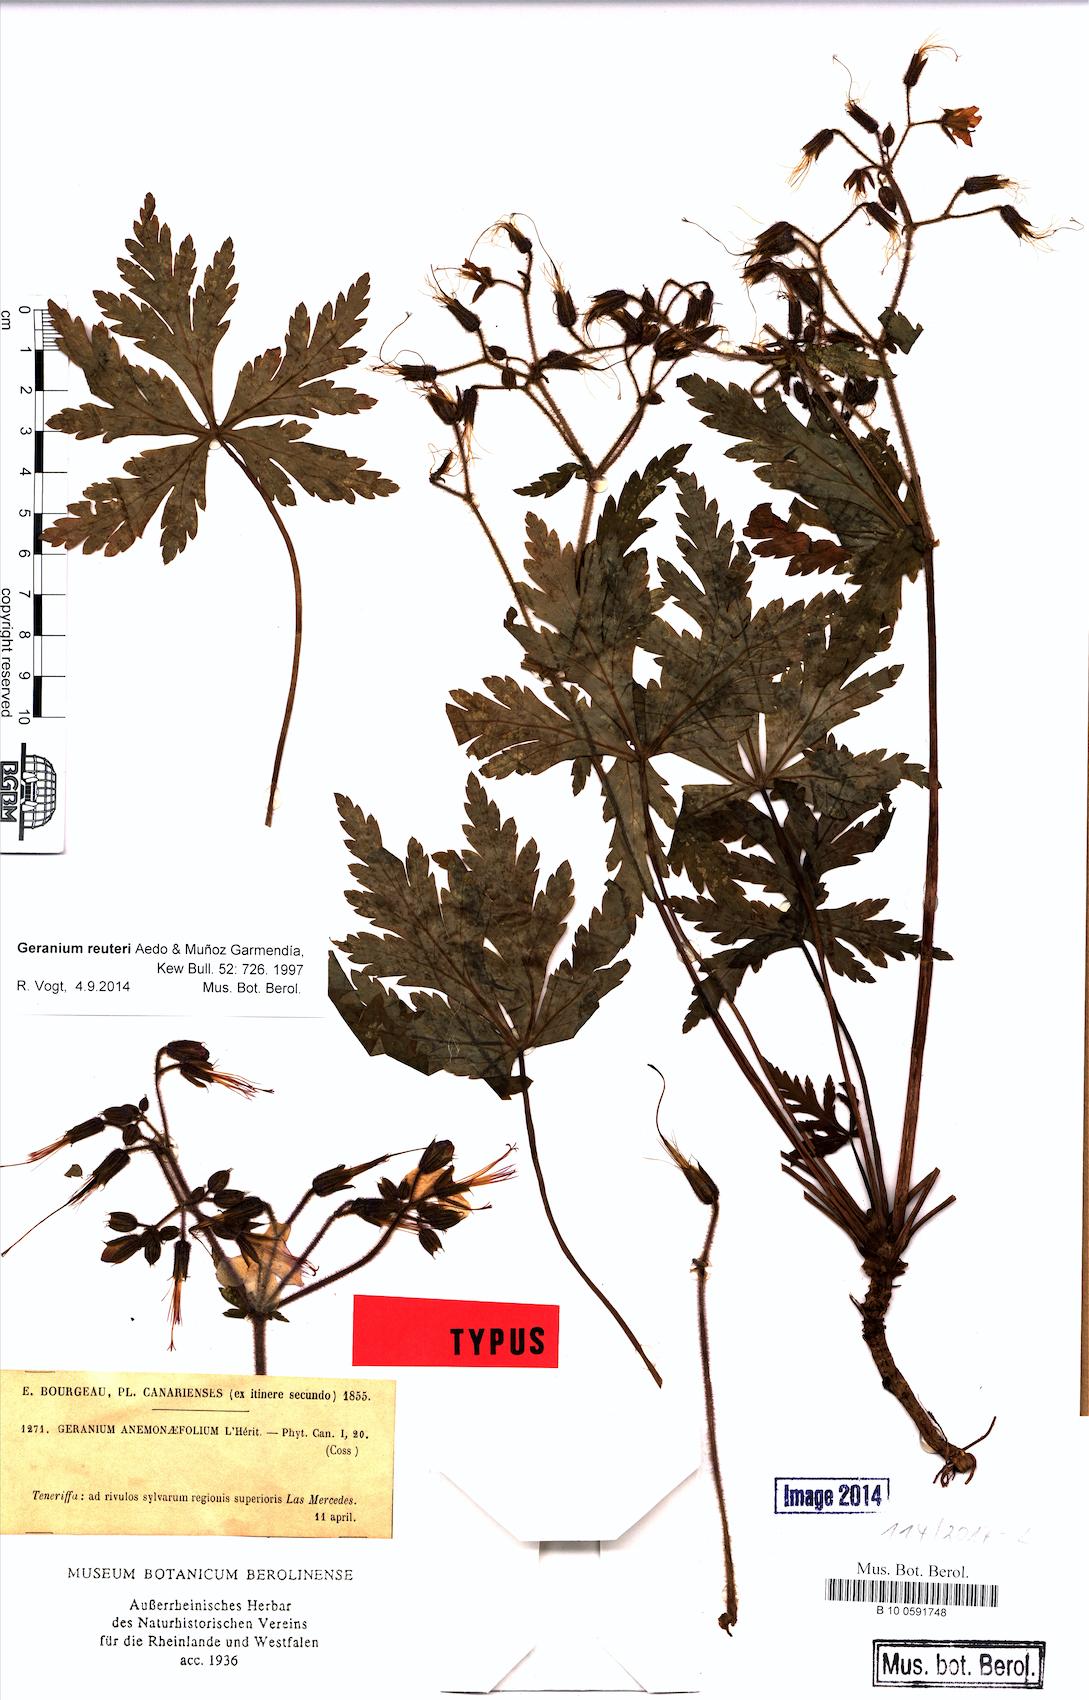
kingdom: Plantae
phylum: Tracheophyta
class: Magnoliopsida
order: Geraniales
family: Geraniaceae
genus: Geranium
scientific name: Geranium reuteri
